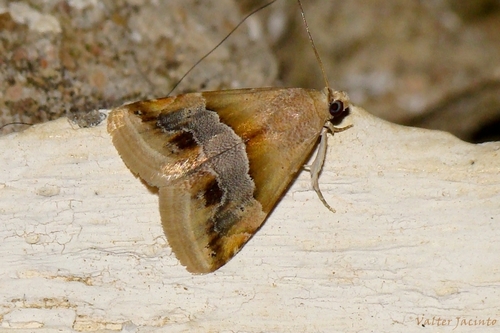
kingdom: Animalia
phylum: Arthropoda
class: Insecta
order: Lepidoptera
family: Noctuidae
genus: Eublemma
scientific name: Eublemma parva
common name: Small marbled
